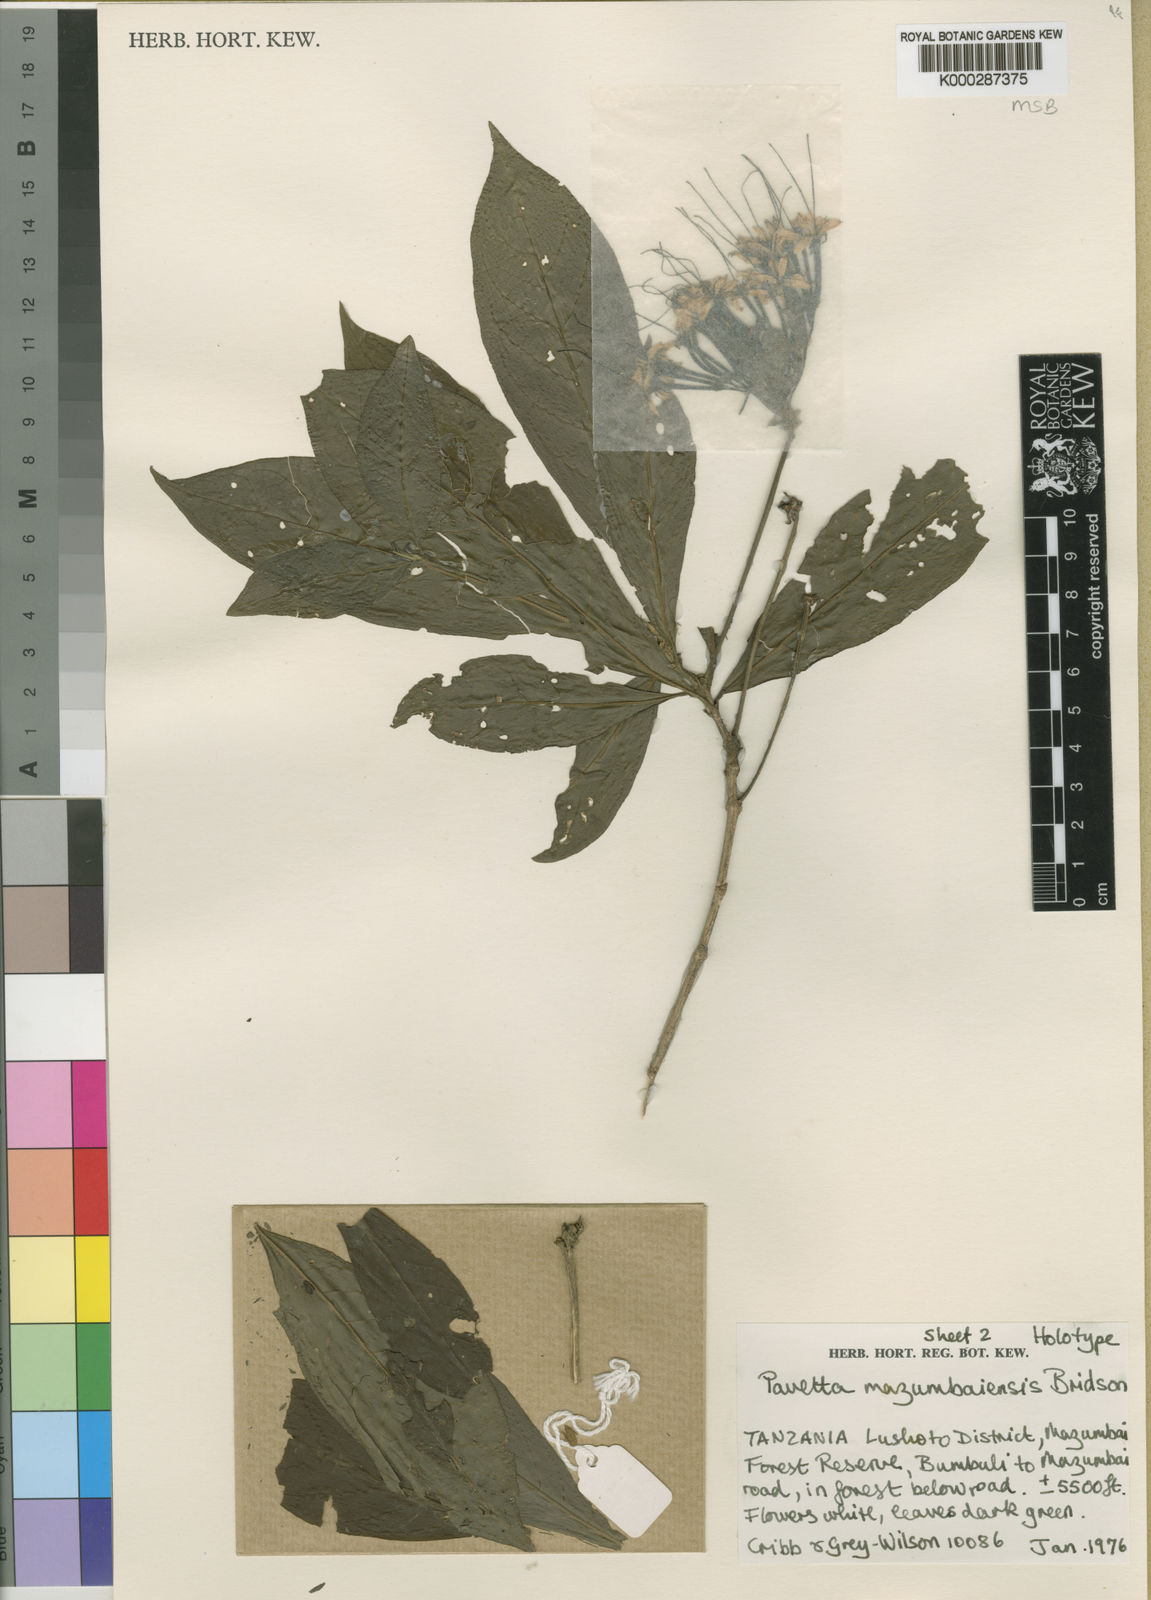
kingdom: Plantae
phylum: Tracheophyta
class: Magnoliopsida
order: Gentianales
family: Rubiaceae
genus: Pavetta
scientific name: Pavetta mazumbaiensis
